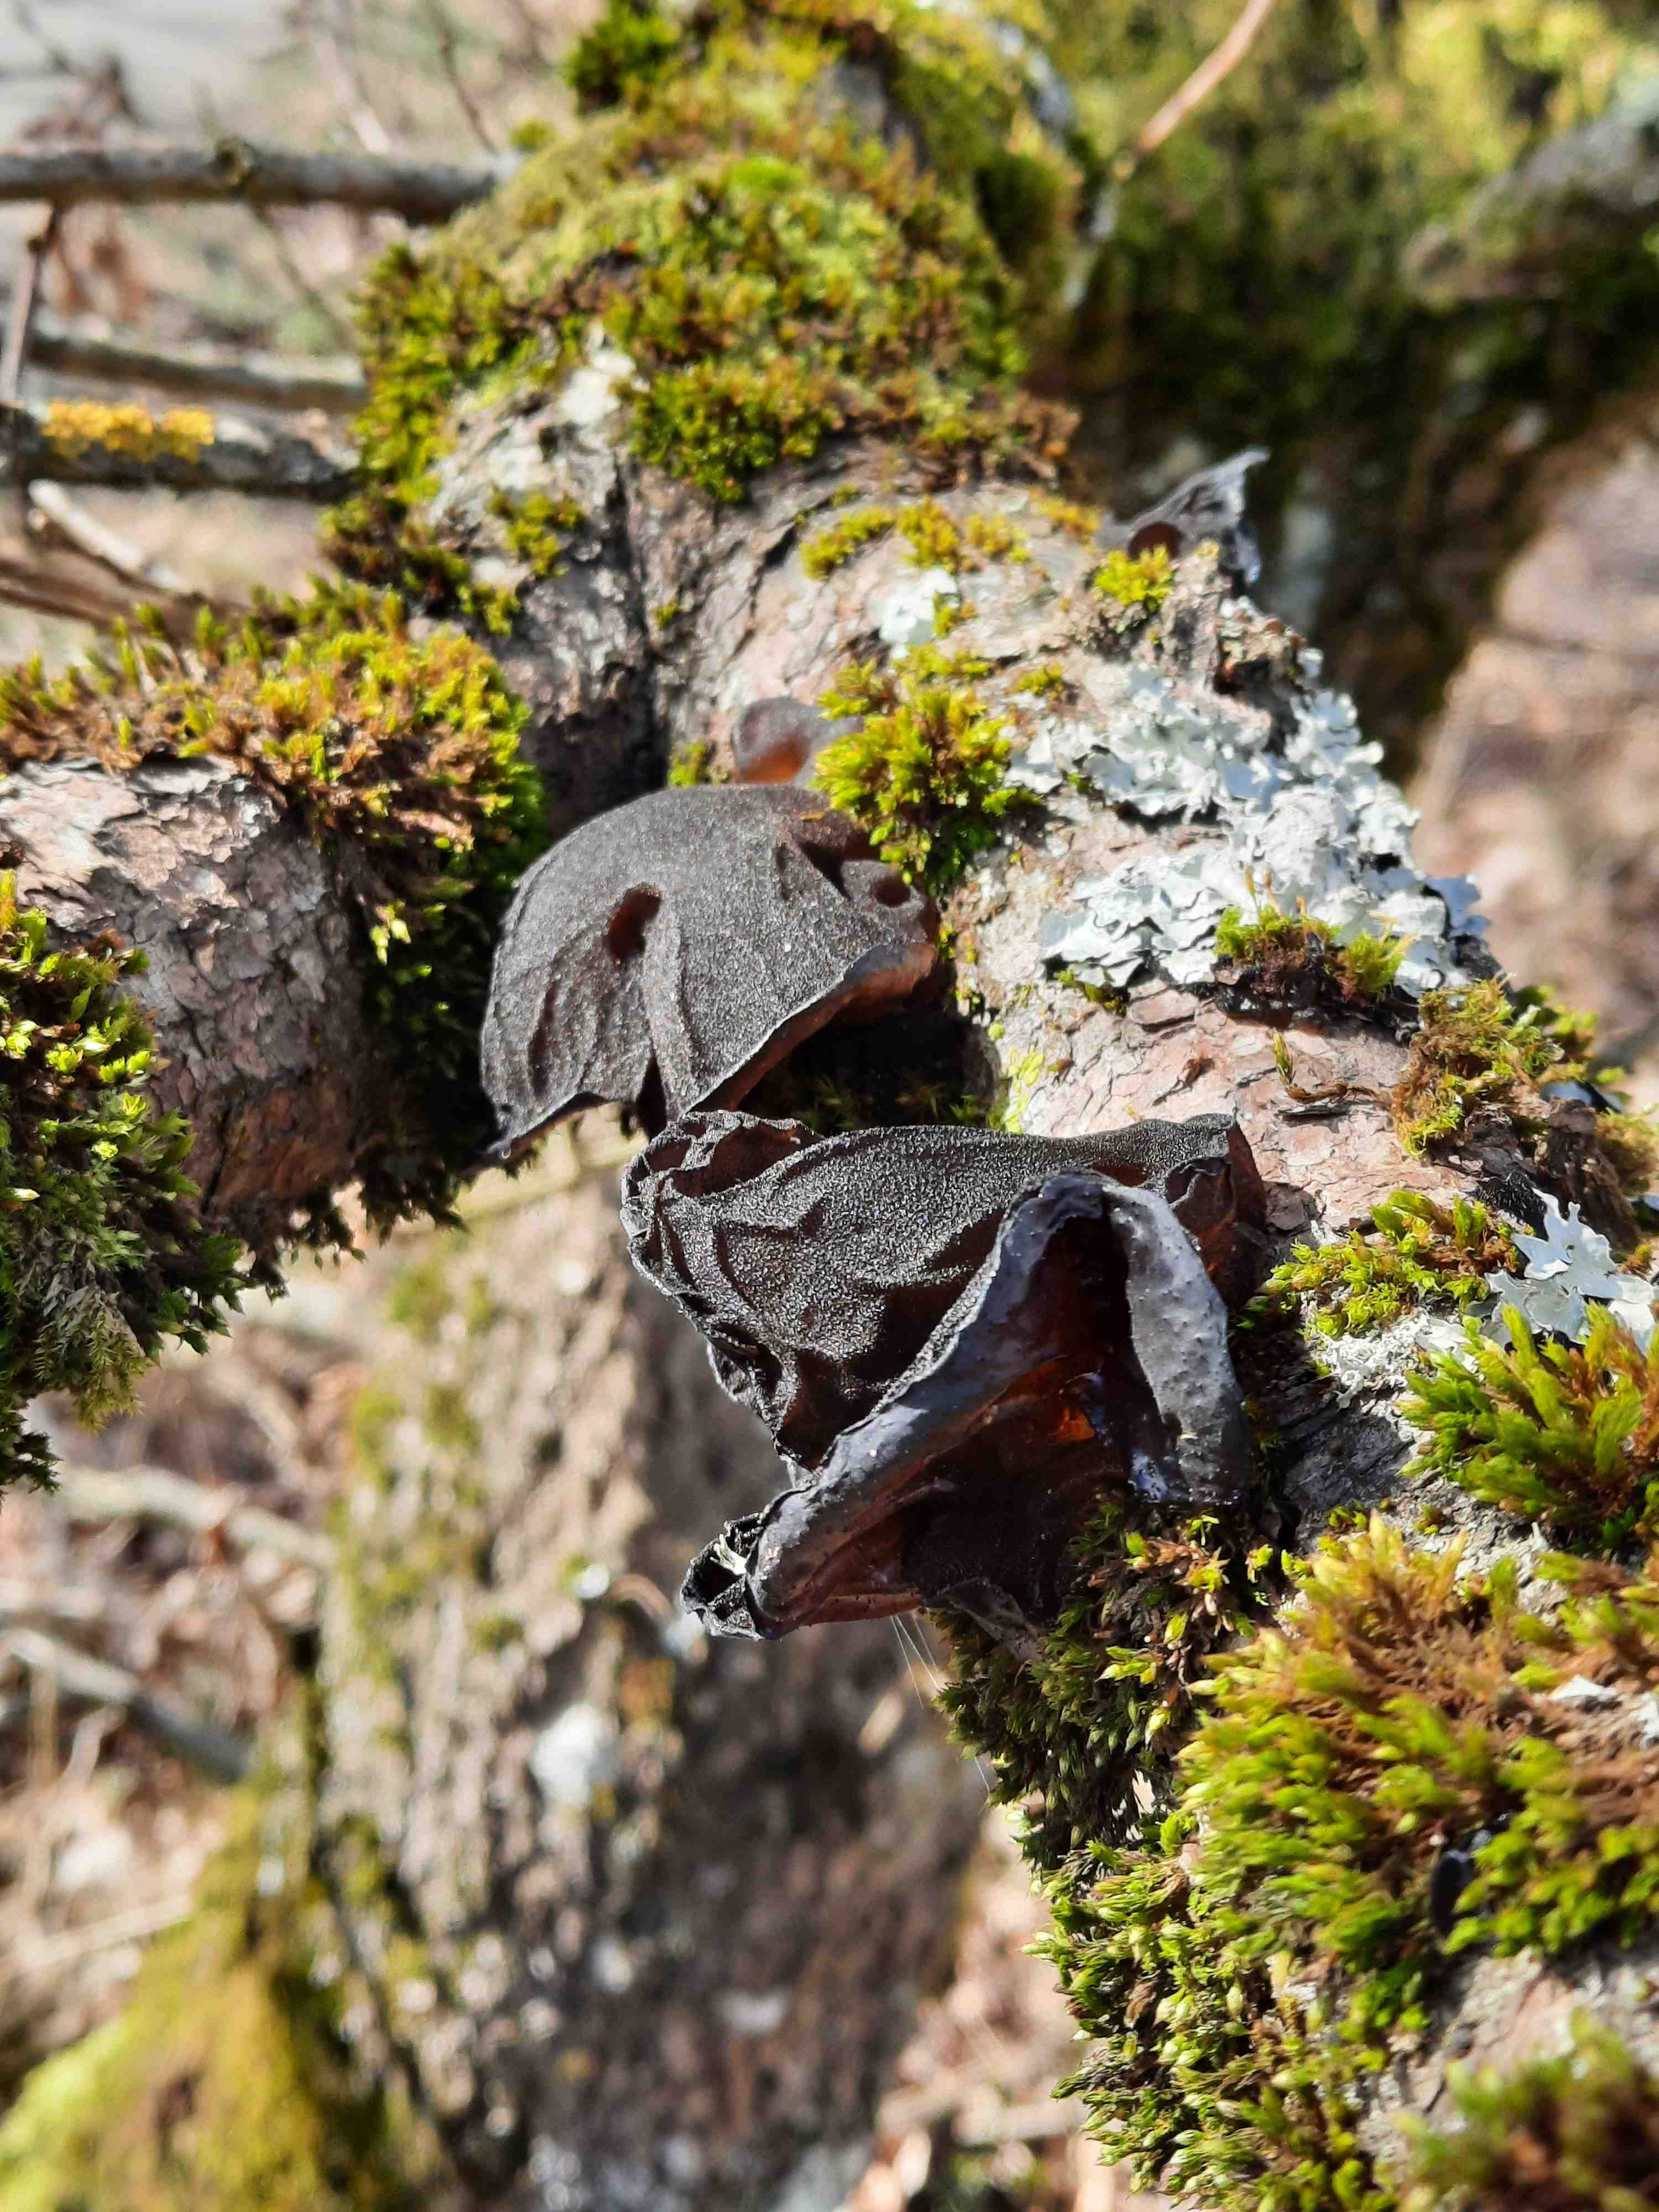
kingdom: Fungi
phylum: Basidiomycota
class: Agaricomycetes
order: Auriculariales
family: Auriculariaceae
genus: Exidia
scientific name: Exidia glandulosa
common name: ege-bævretop
